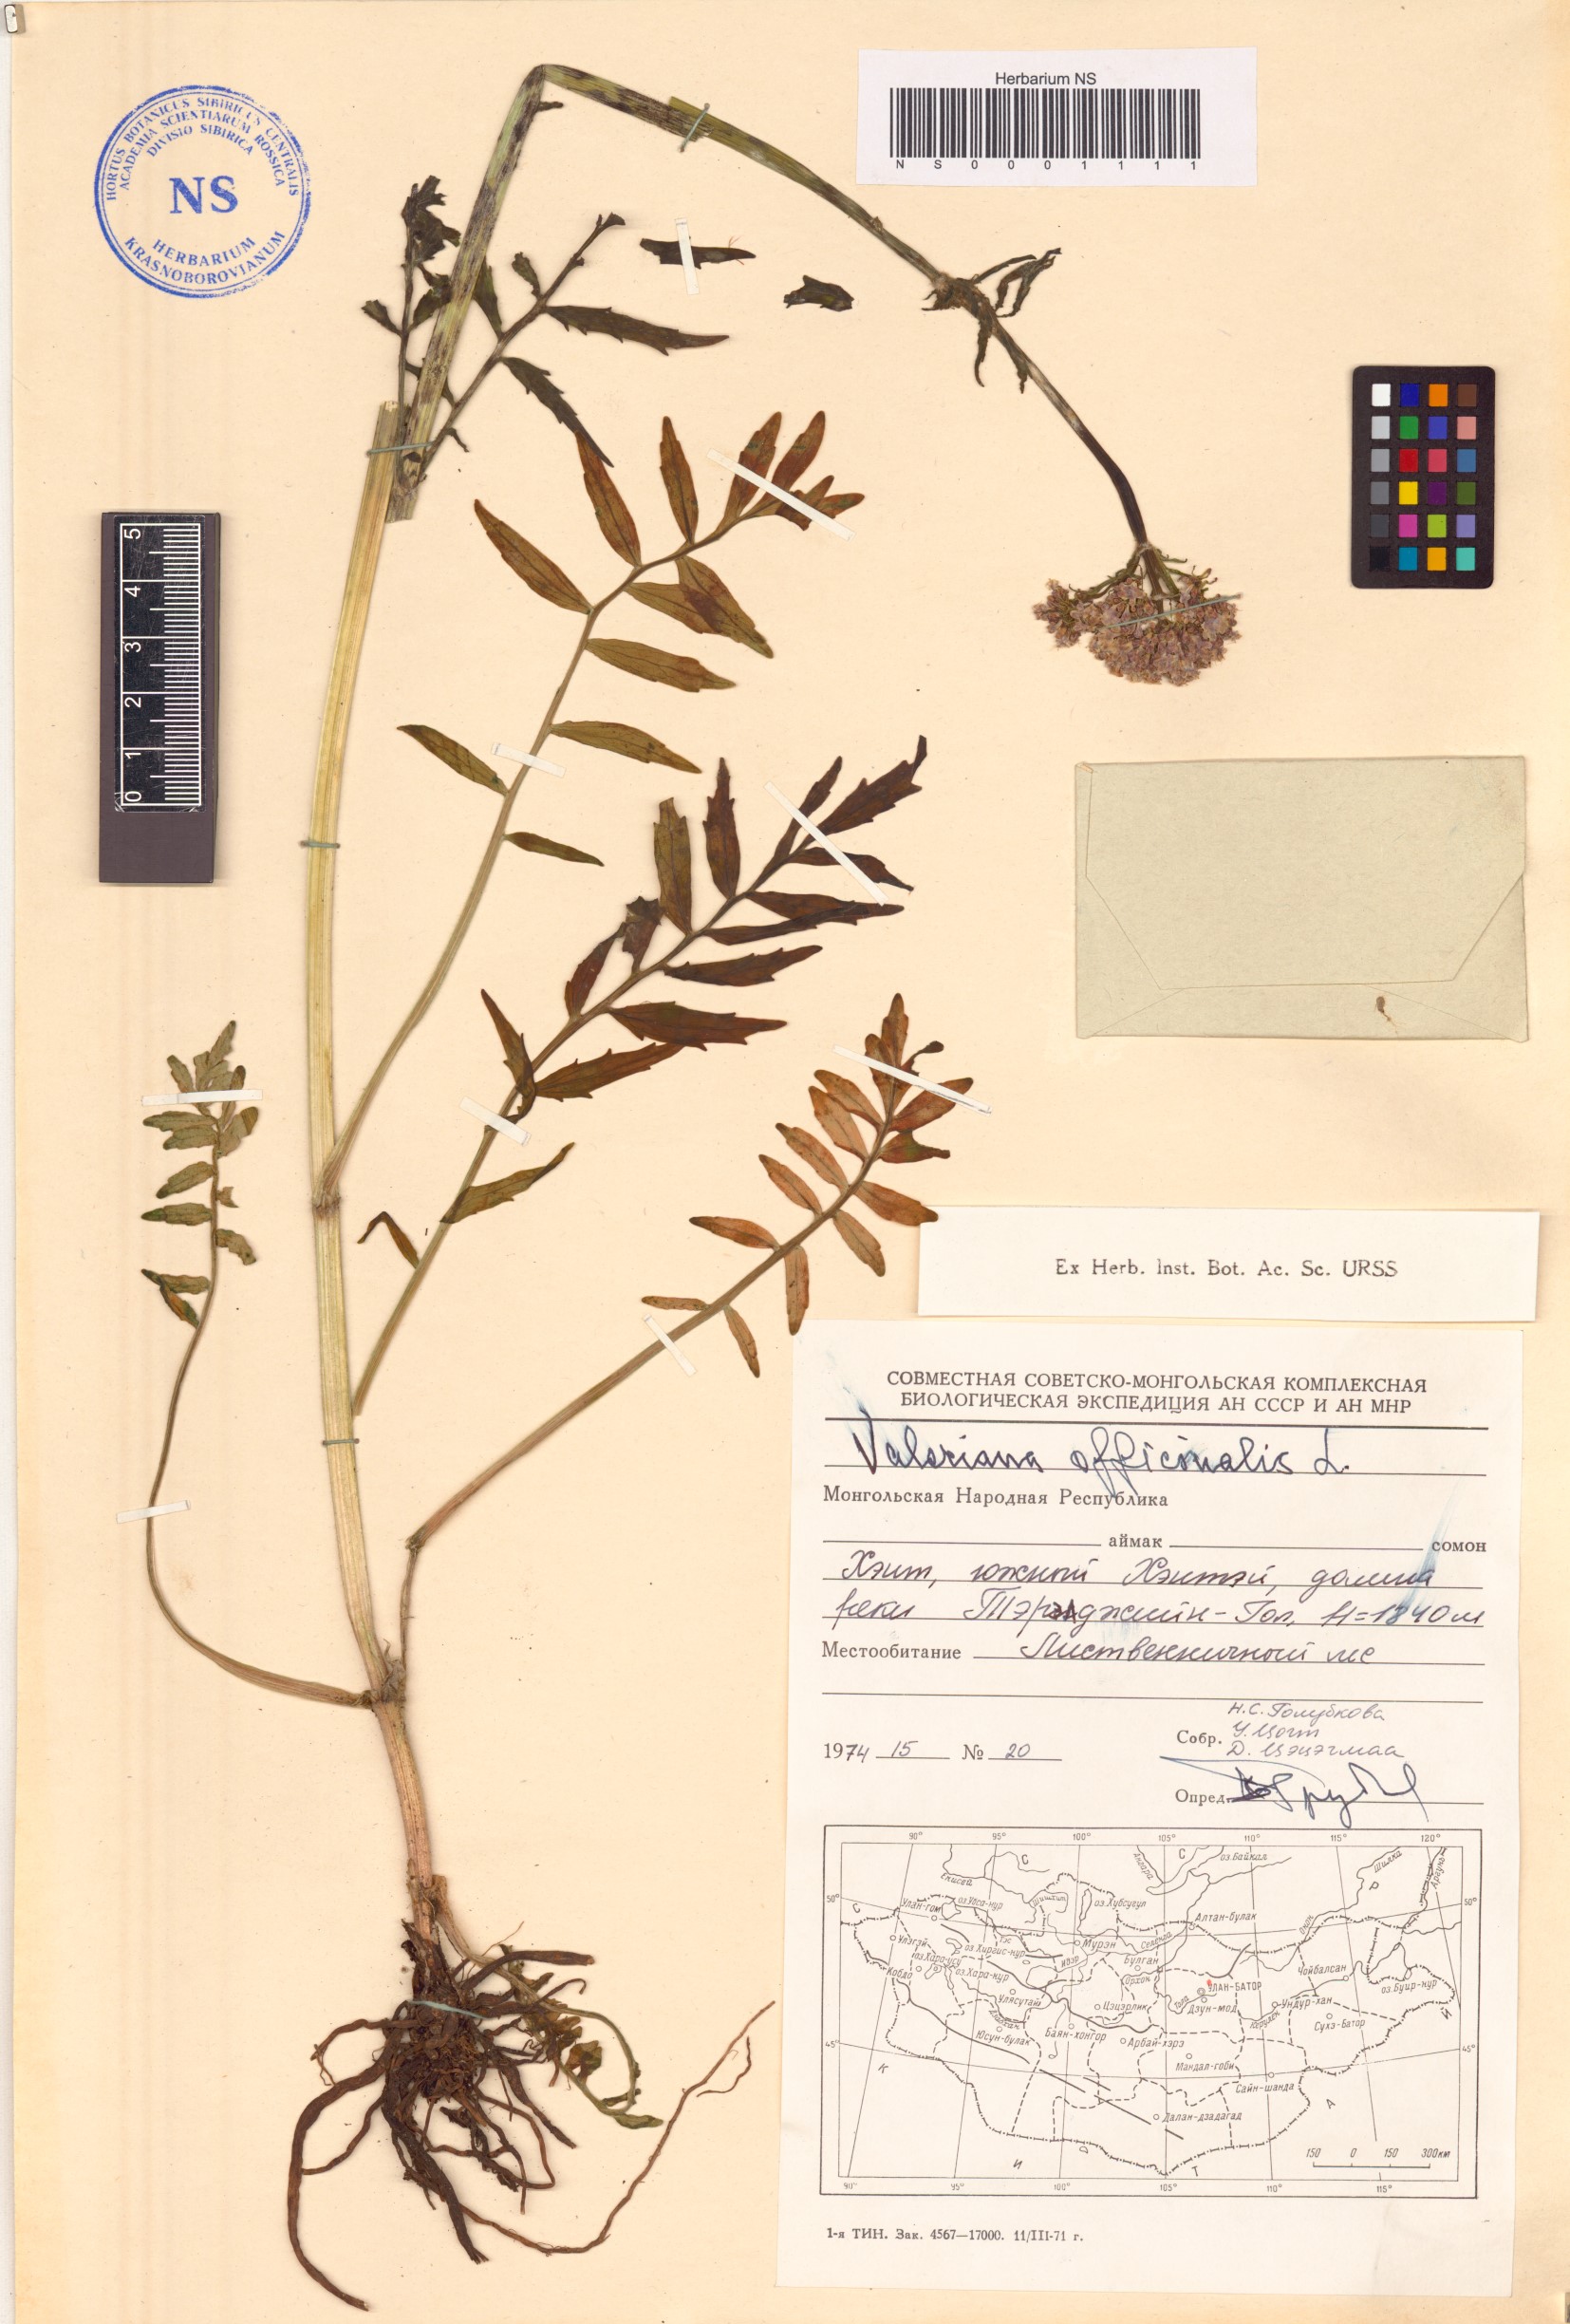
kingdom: Plantae
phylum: Tracheophyta
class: Magnoliopsida
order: Dipsacales
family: Caprifoliaceae
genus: Valeriana
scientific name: Valeriana officinalis
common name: Common valerian
